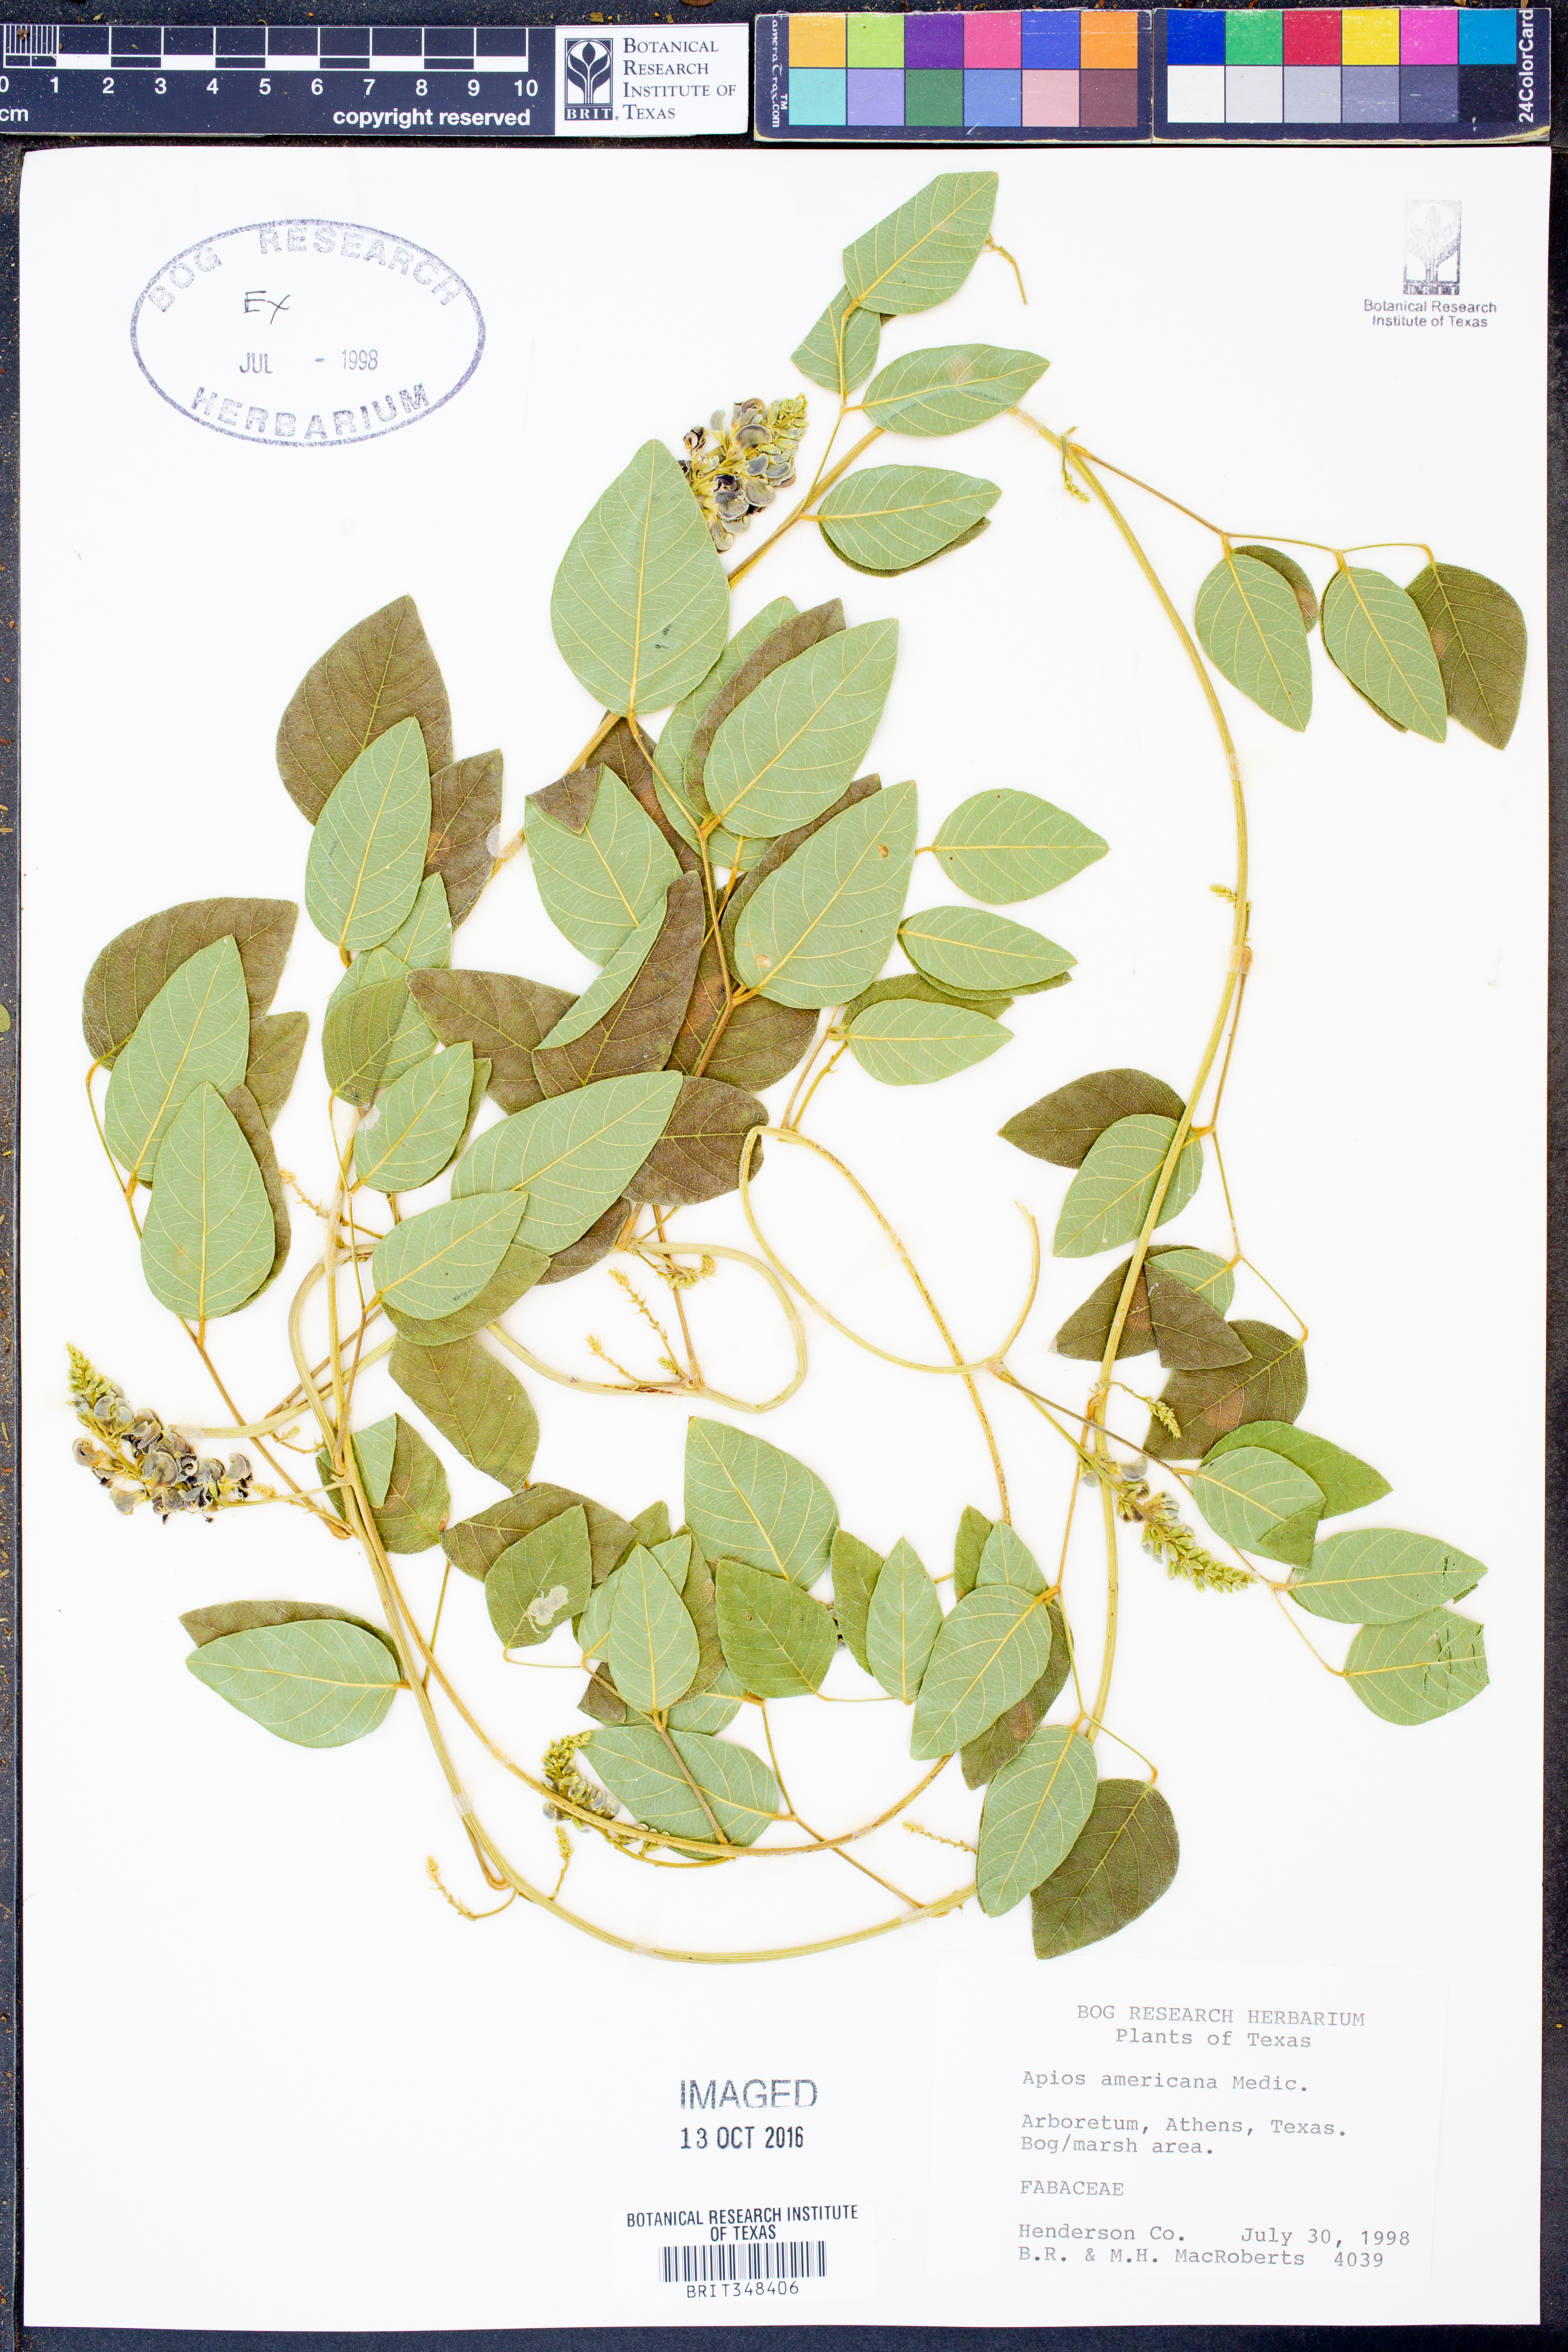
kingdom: Plantae
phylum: Tracheophyta
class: Magnoliopsida
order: Fabales
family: Fabaceae
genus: Apios
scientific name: Apios americana
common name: American potato-bean
